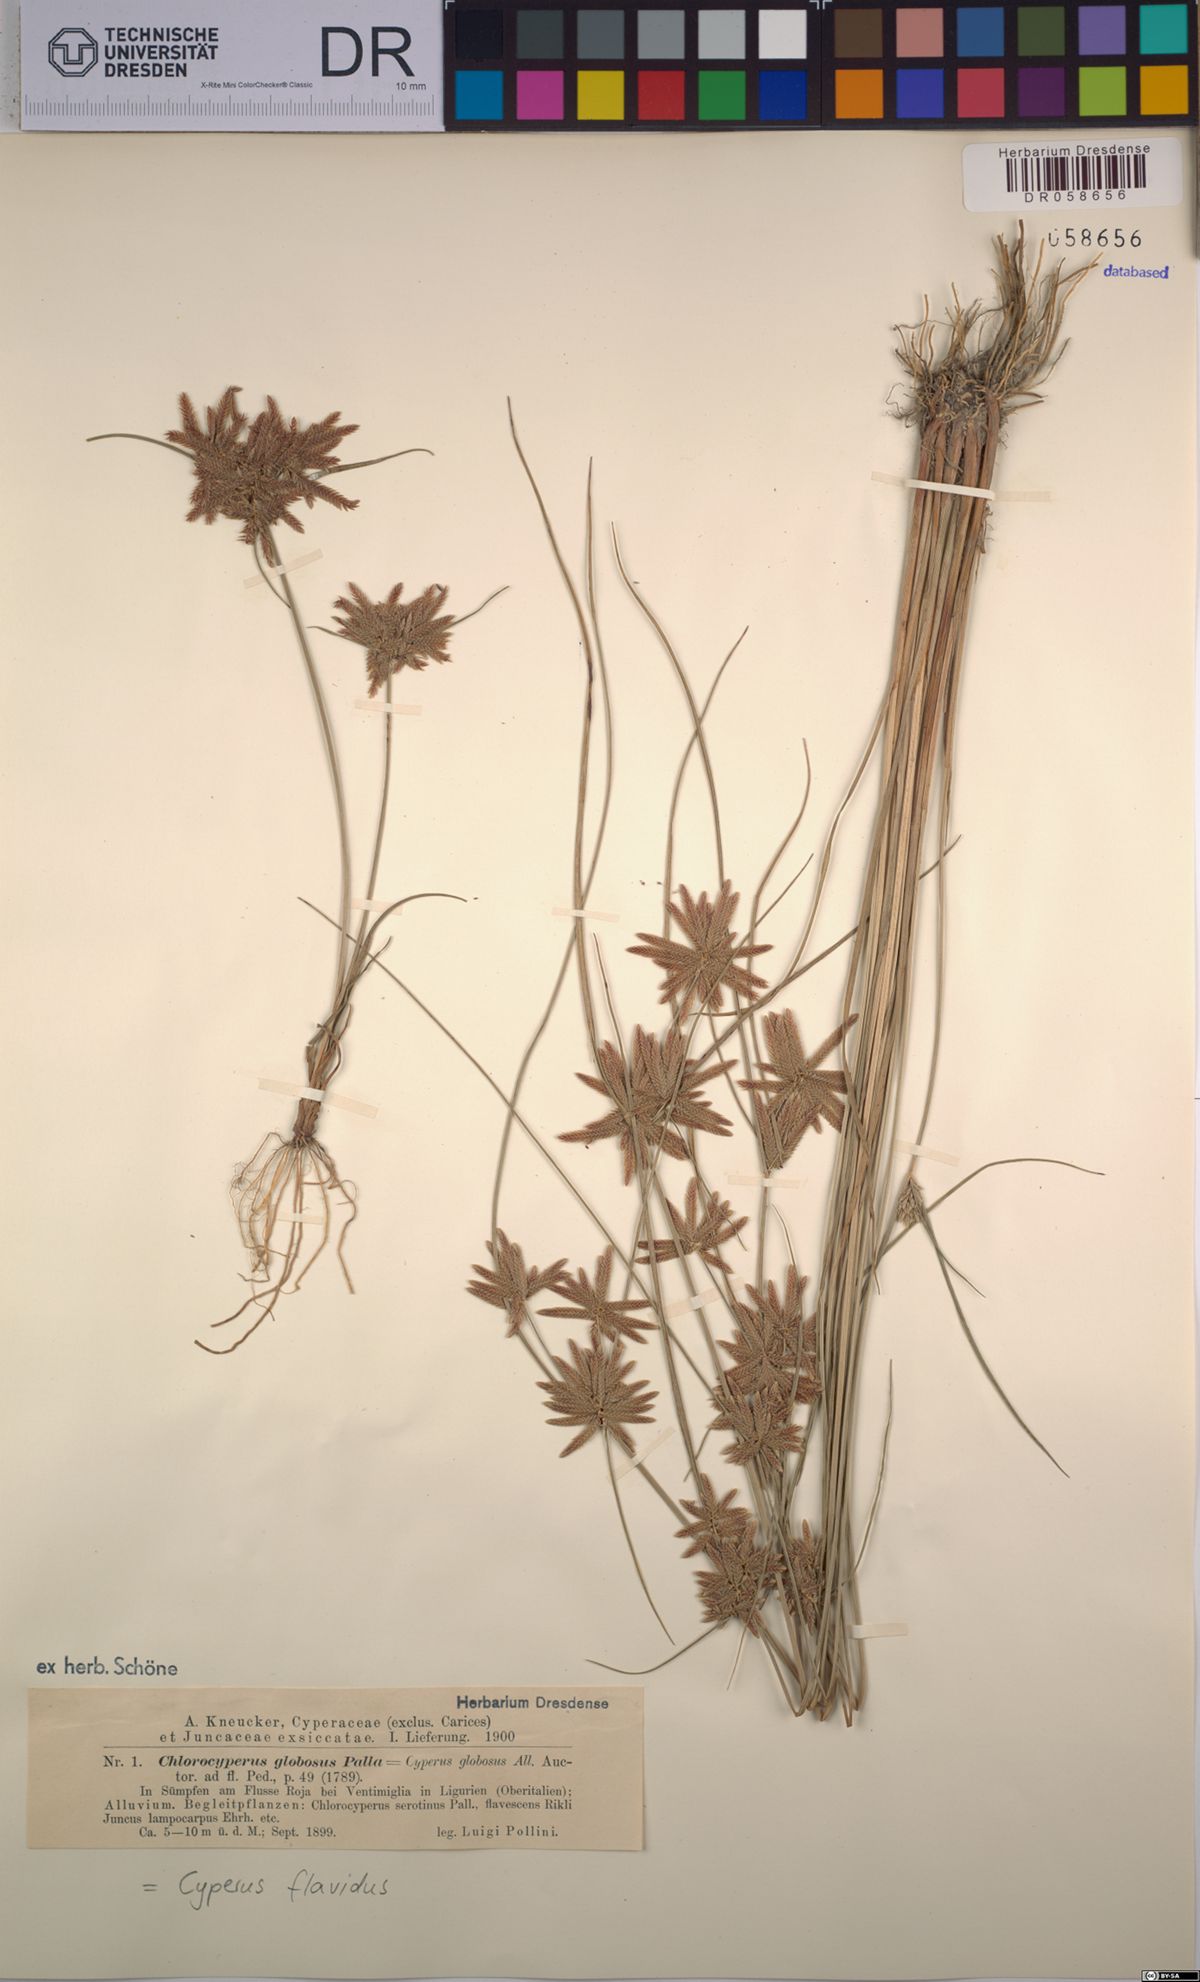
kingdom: Plantae
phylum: Tracheophyta
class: Liliopsida
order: Poales
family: Cyperaceae
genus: Cyperus
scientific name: Cyperus flavidus
